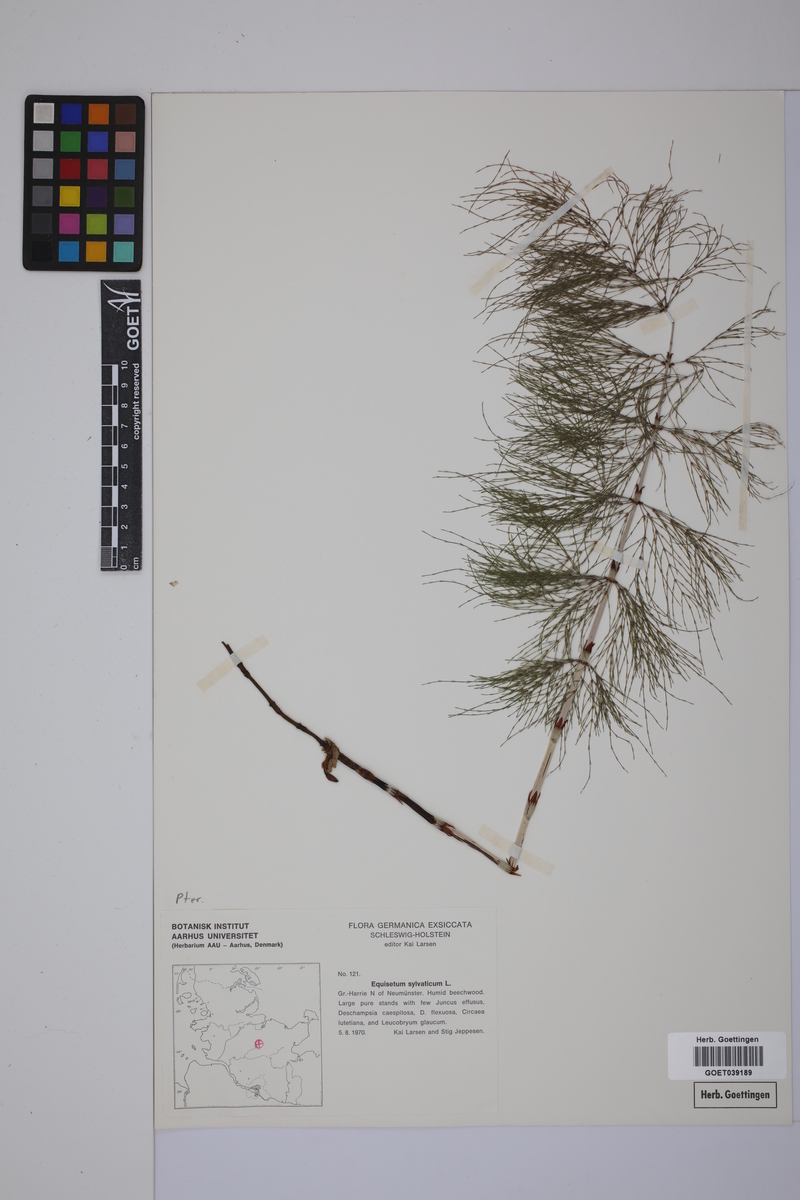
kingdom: Plantae
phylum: Tracheophyta
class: Polypodiopsida
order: Equisetales
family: Equisetaceae
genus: Equisetum
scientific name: Equisetum sylvaticum
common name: Wood horsetail
